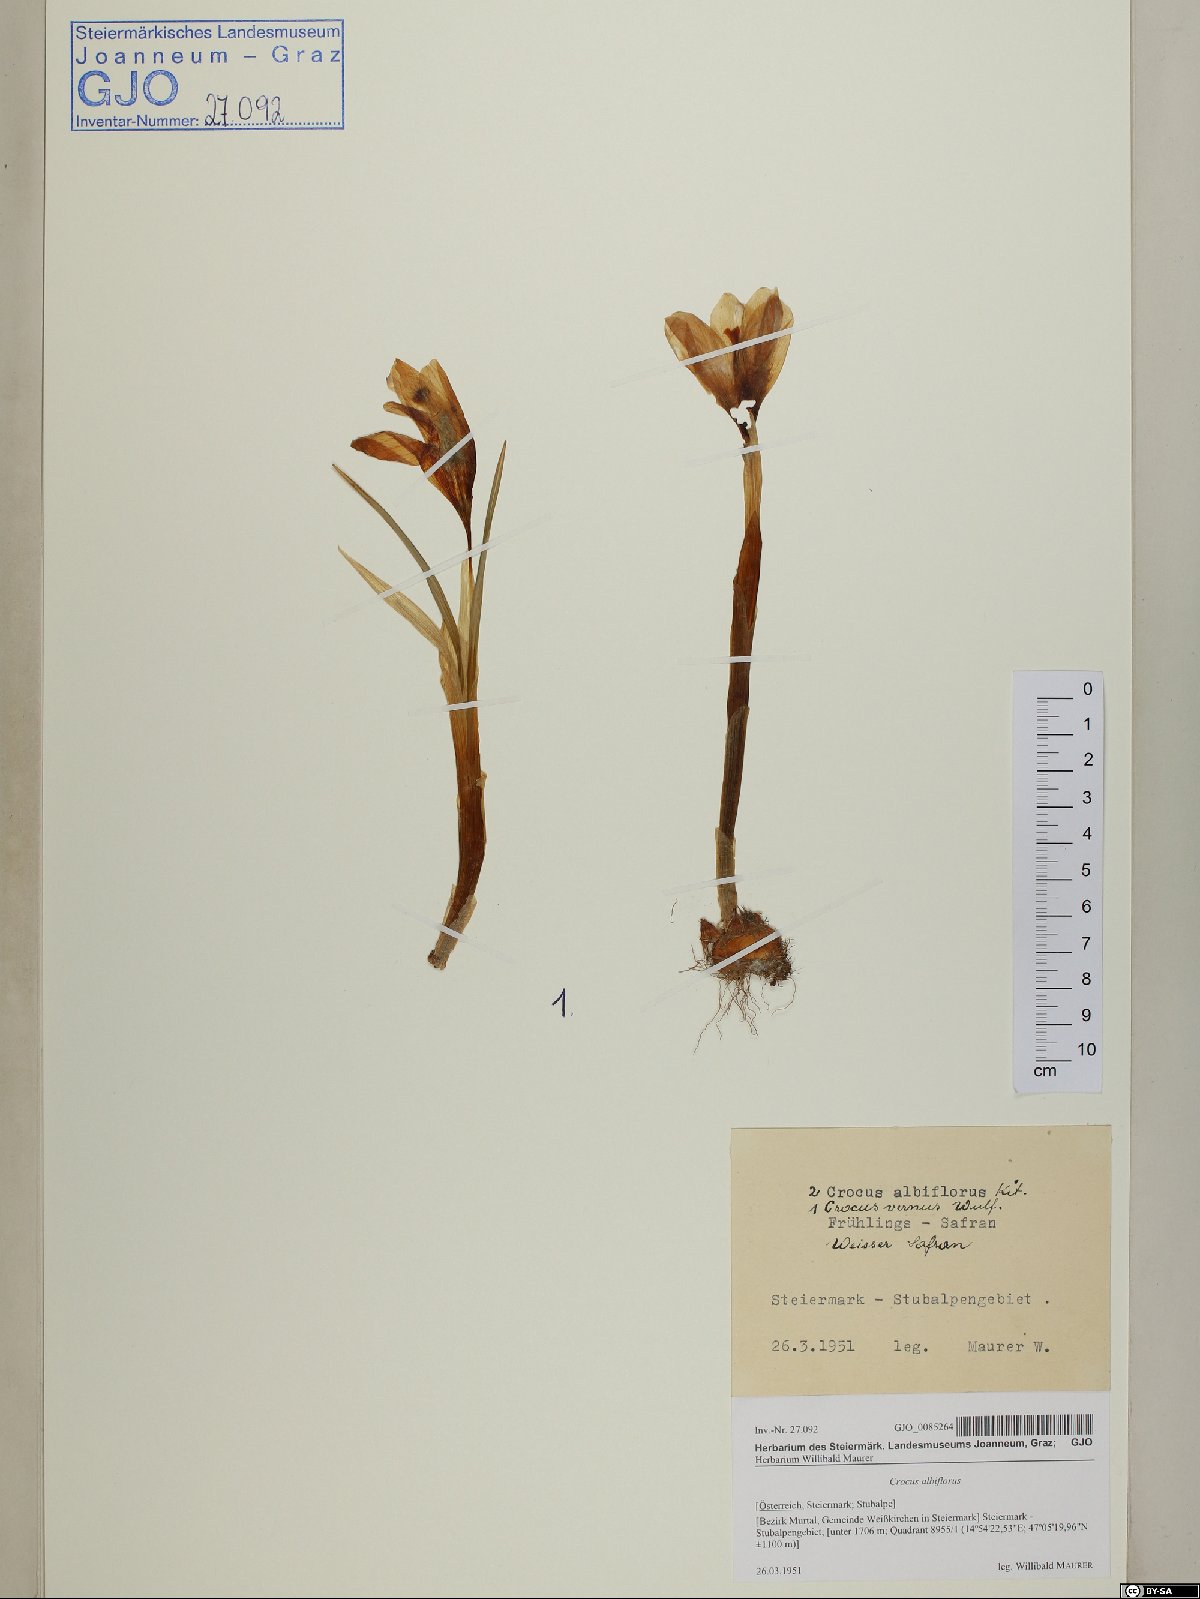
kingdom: Plantae
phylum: Tracheophyta
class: Liliopsida
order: Asparagales
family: Iridaceae
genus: Crocus
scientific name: Crocus vernus
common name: Spring crocus
